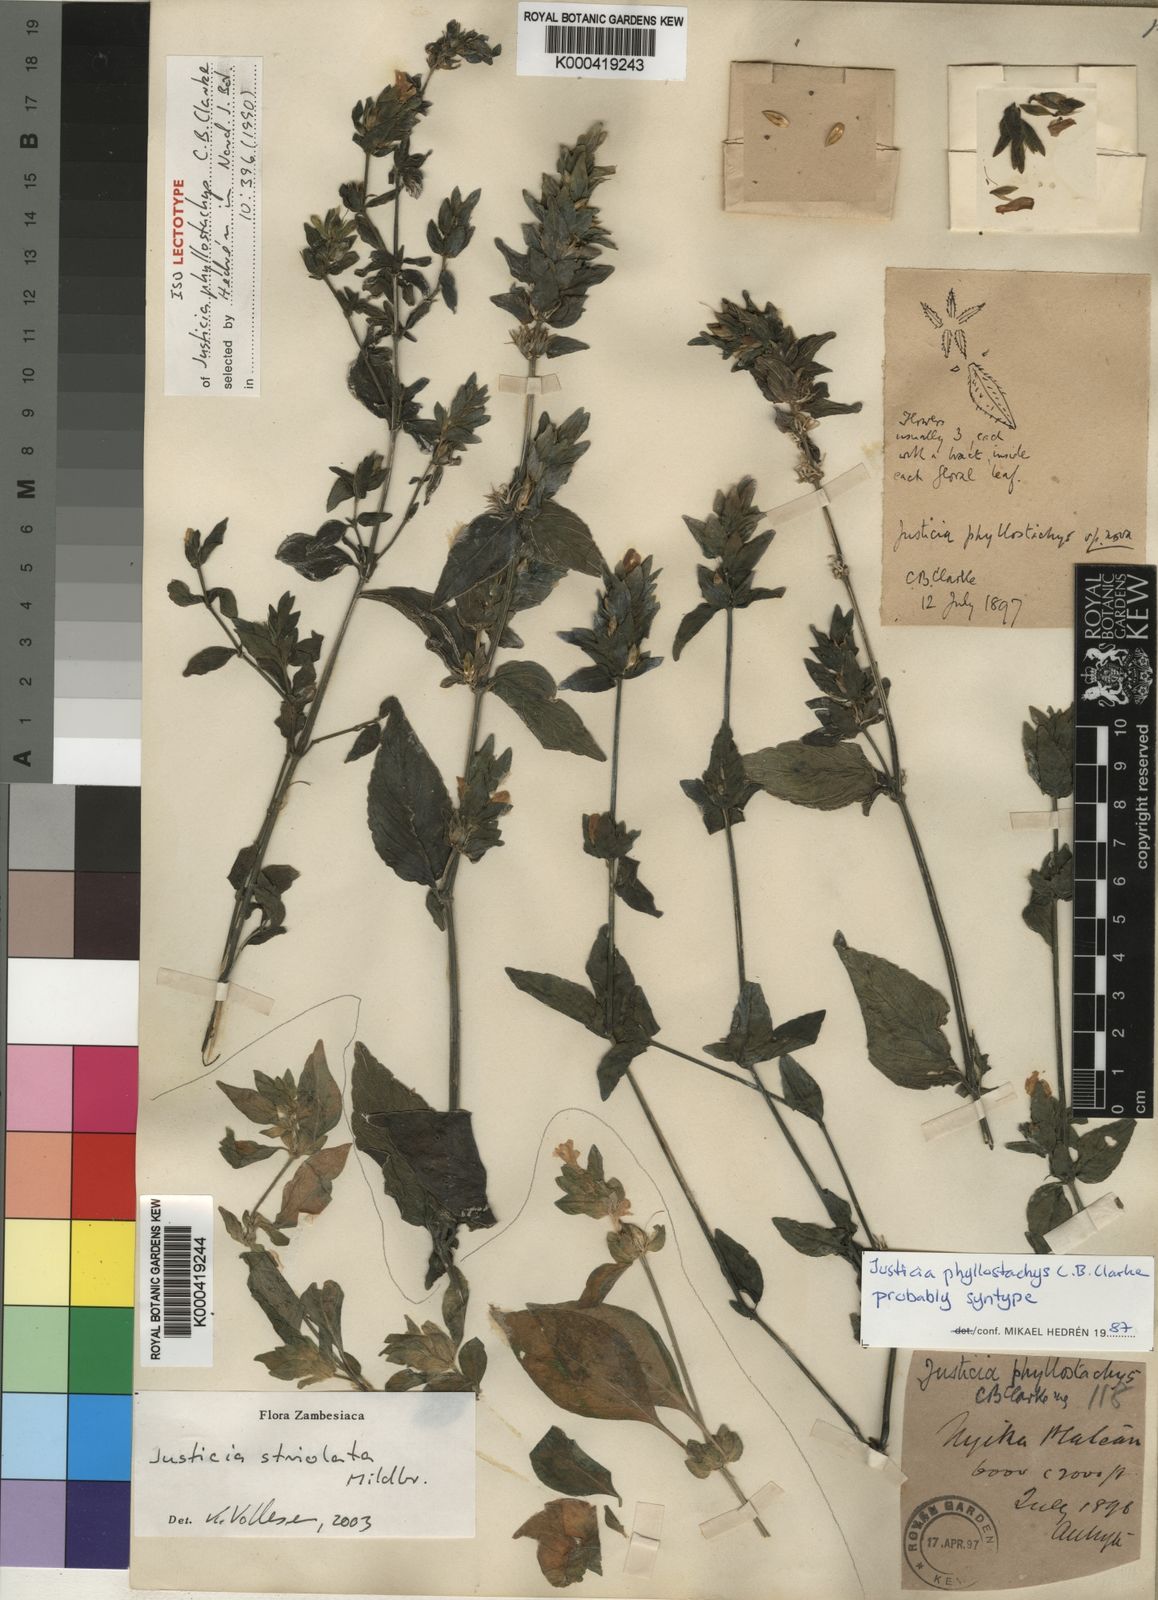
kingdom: Plantae
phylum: Tracheophyta
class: Magnoliopsida
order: Lamiales
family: Acanthaceae
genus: Justicia
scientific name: Justicia phyllostachys
